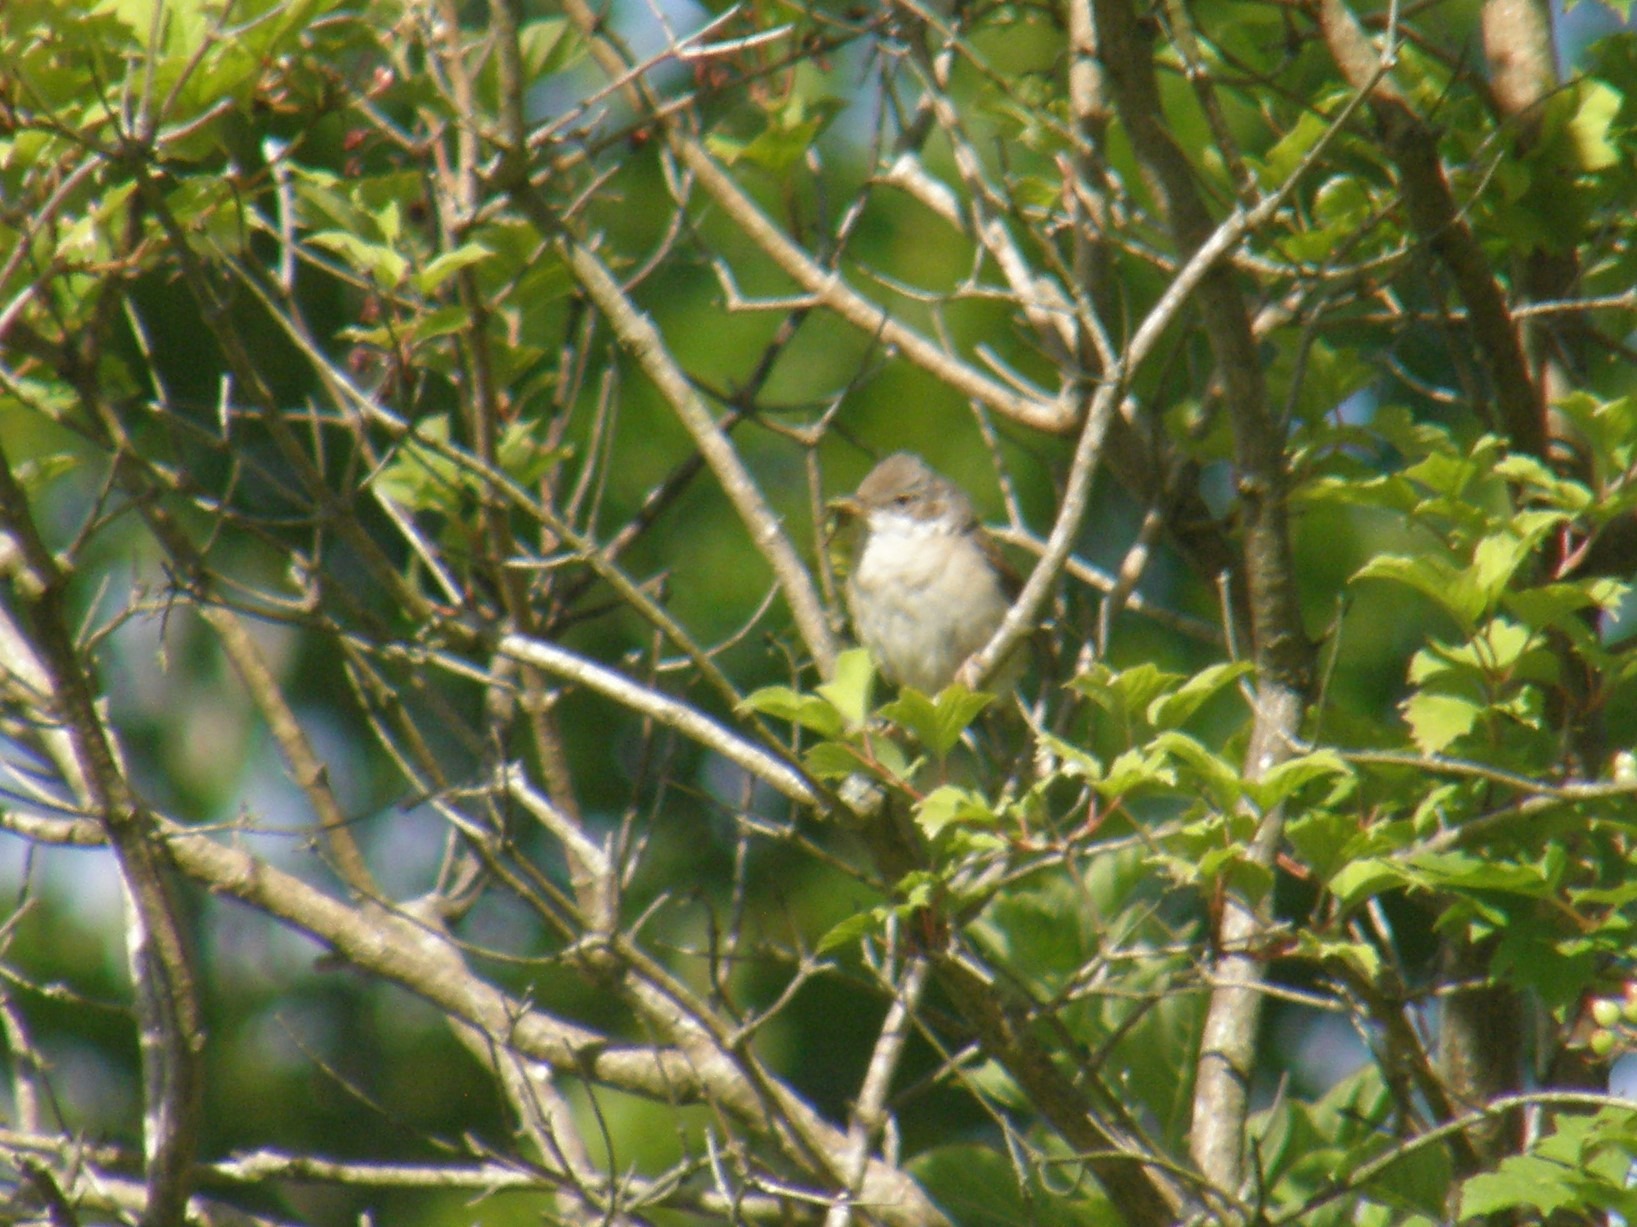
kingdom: Animalia
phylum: Chordata
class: Aves
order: Passeriformes
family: Sylviidae
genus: Sylvia
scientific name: Sylvia communis
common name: Tornsanger
